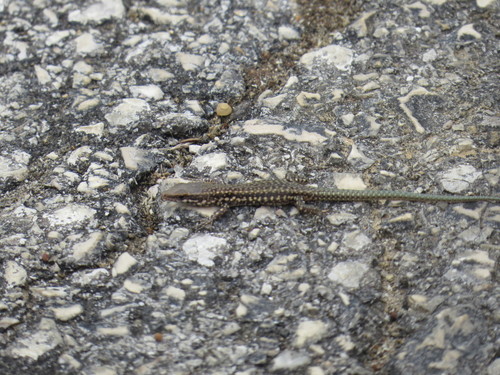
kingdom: Animalia
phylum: Chordata
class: Squamata
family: Lacertidae
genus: Podarcis
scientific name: Podarcis virescens
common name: Geniez’s wall lizard
